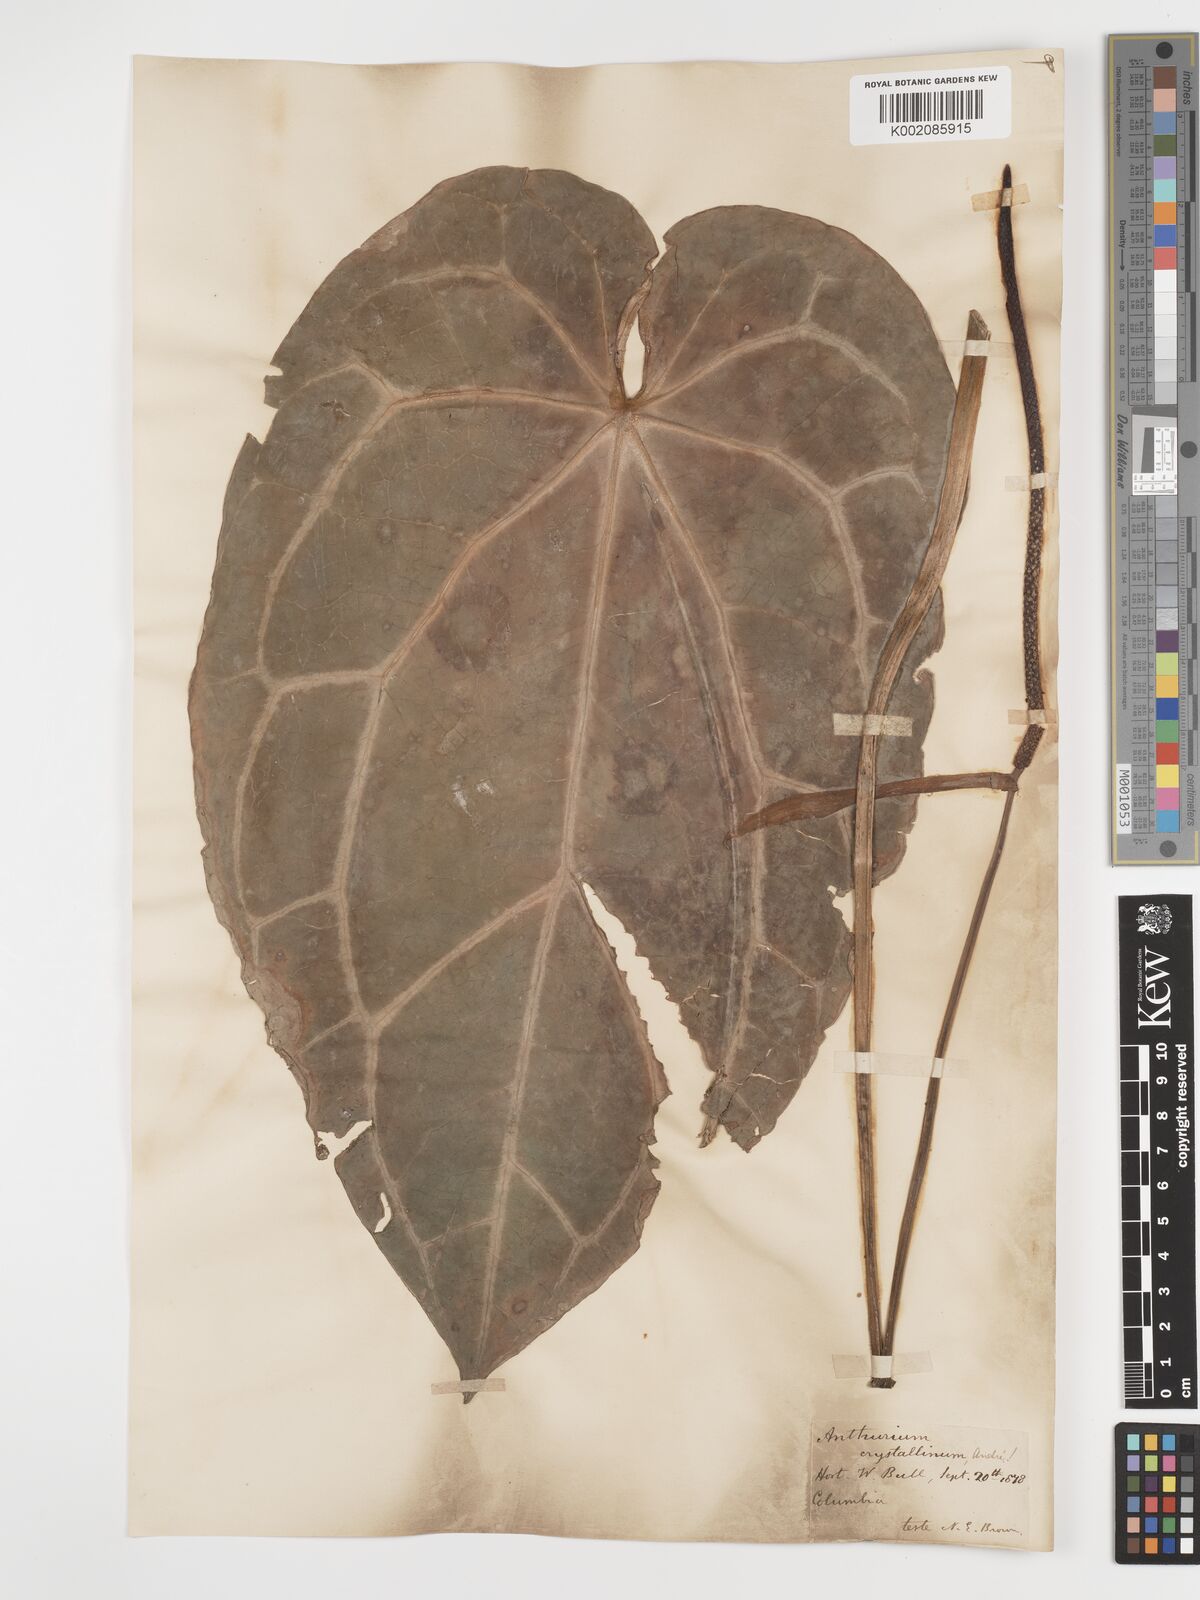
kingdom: Plantae
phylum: Tracheophyta
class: Liliopsida
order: Alismatales
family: Araceae
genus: Anthurium
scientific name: Anthurium crystallinum
